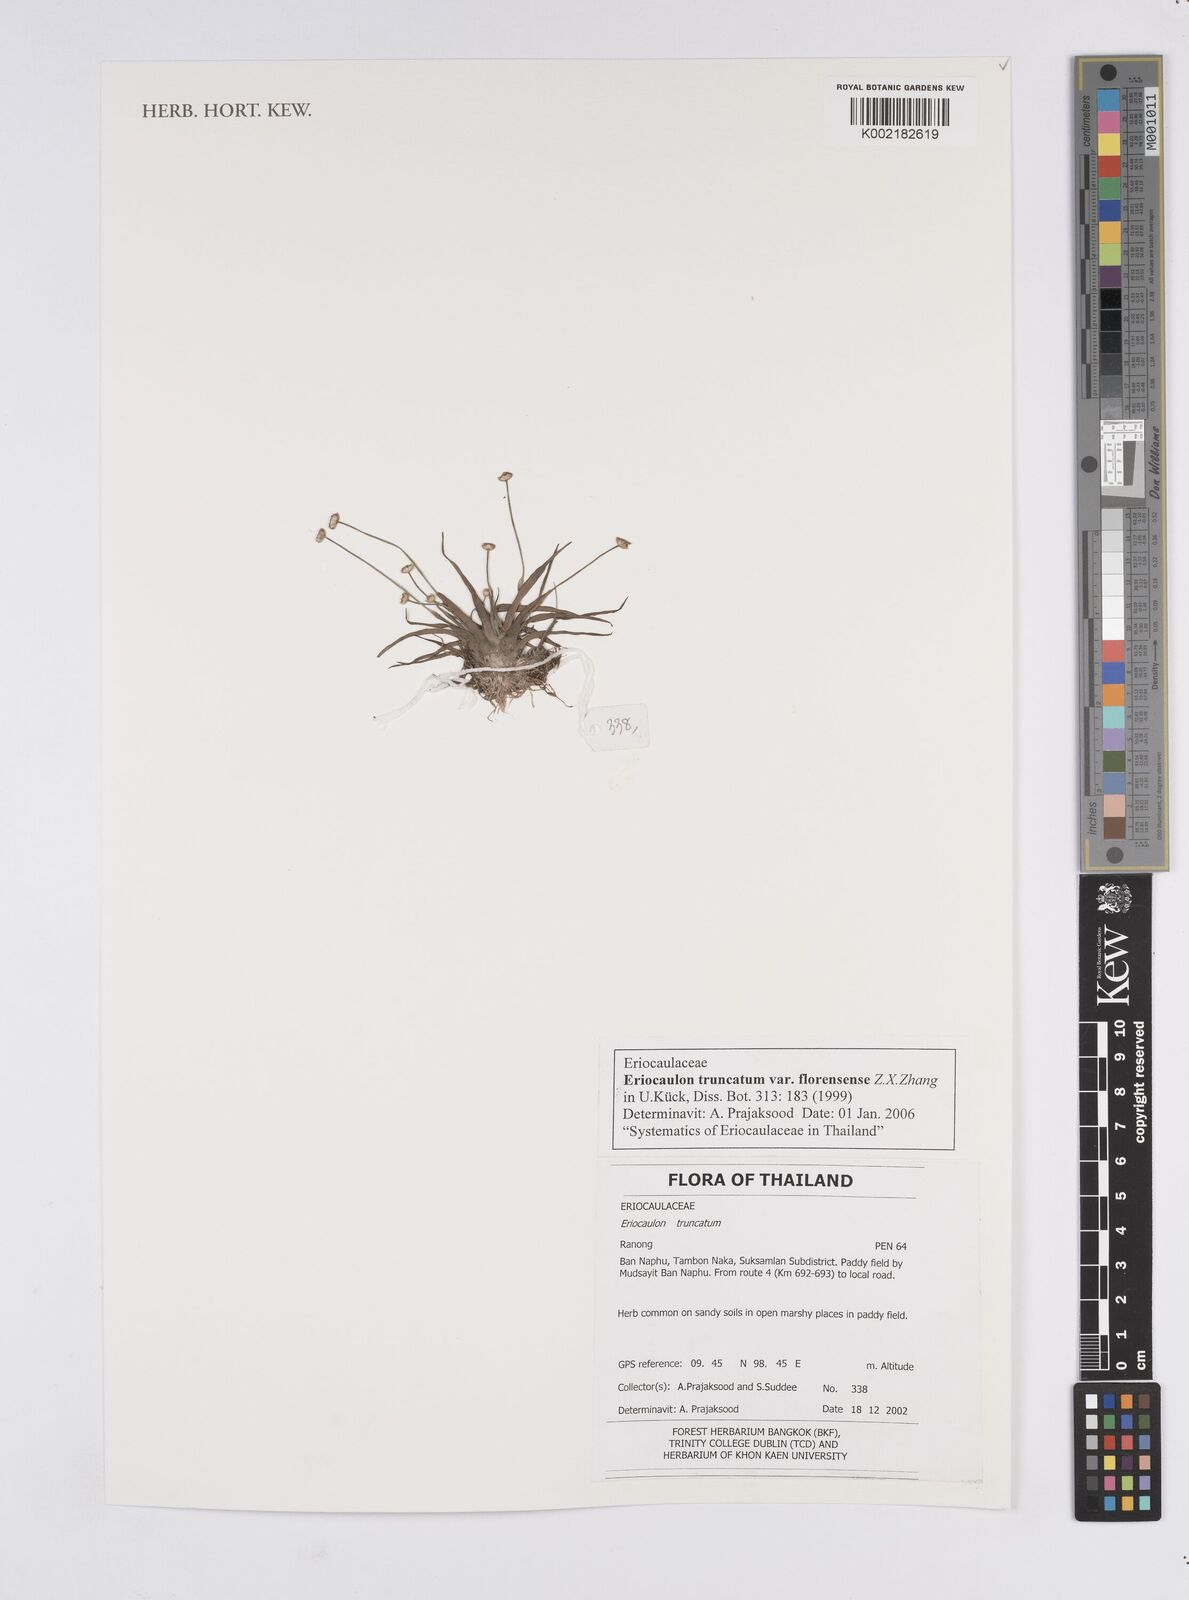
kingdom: Plantae
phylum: Tracheophyta
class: Liliopsida
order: Poales
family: Eriocaulaceae
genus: Eriocaulon
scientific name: Eriocaulon truncatum
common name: Short pipe-wort
